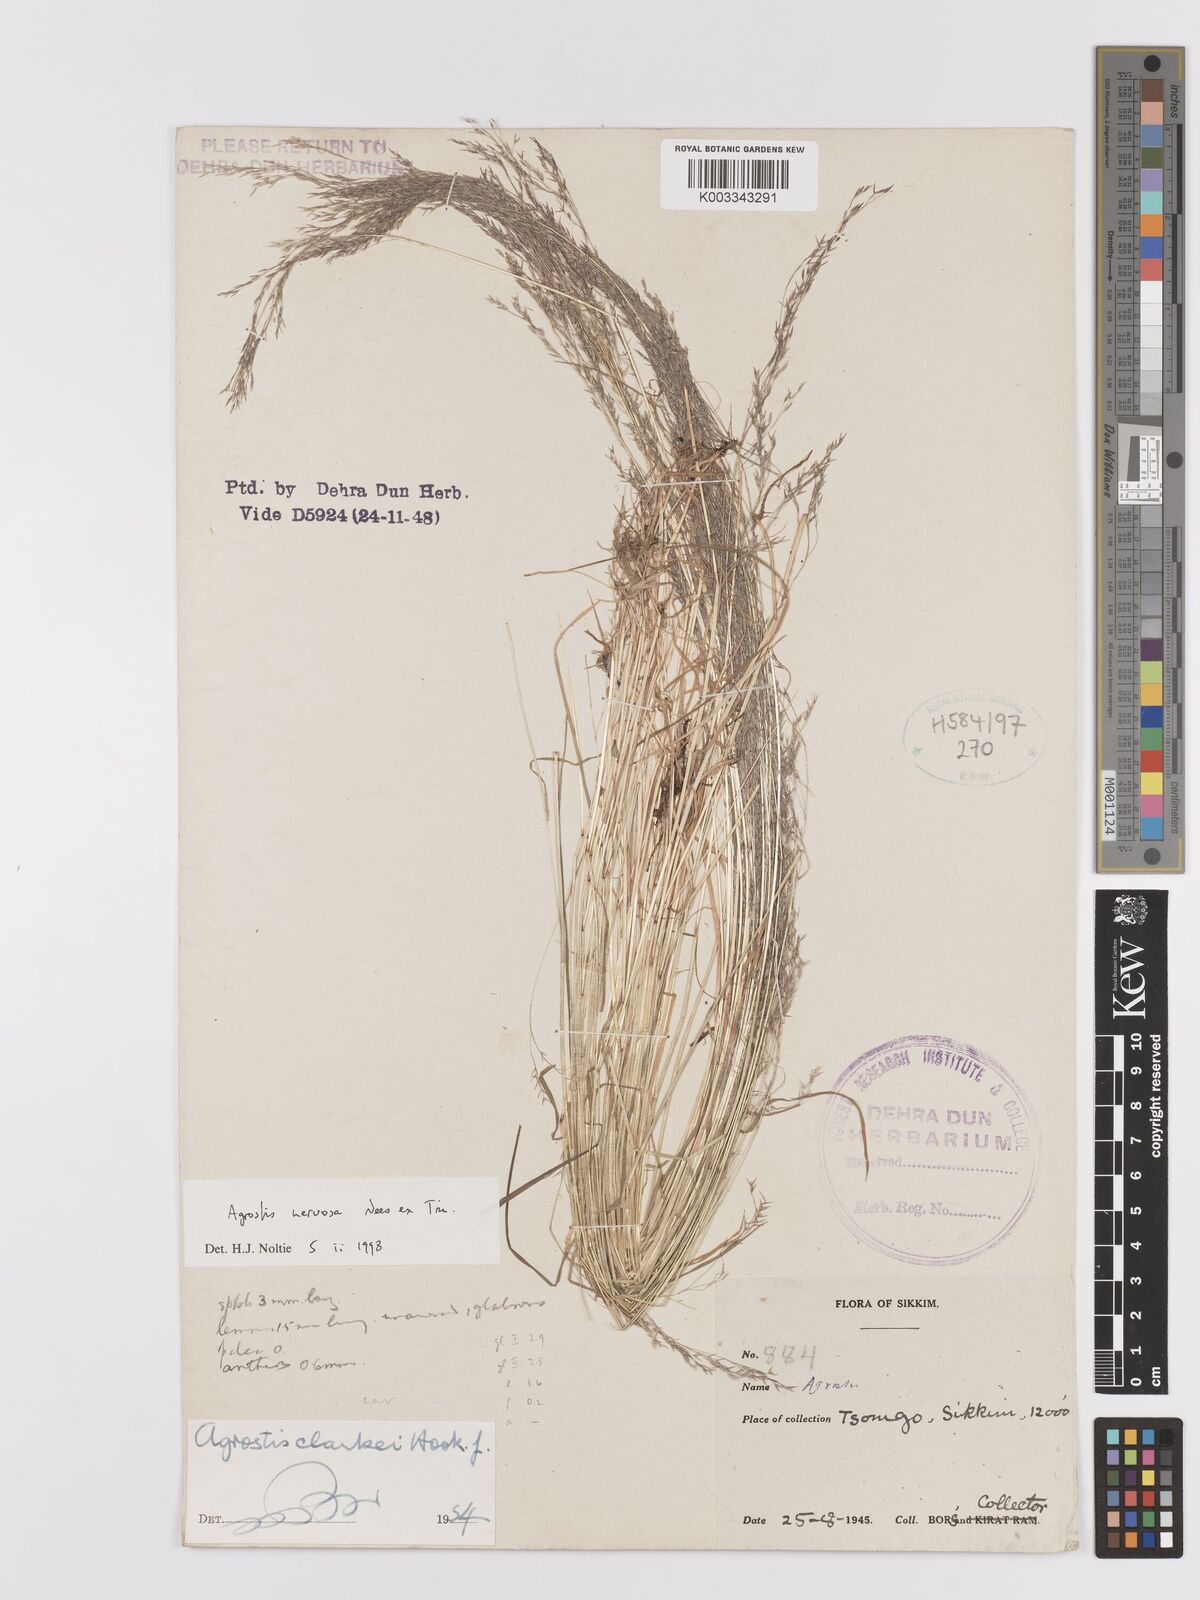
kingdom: Plantae
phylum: Tracheophyta
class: Liliopsida
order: Poales
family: Poaceae
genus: Agrostis
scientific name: Agrostis nervosa
